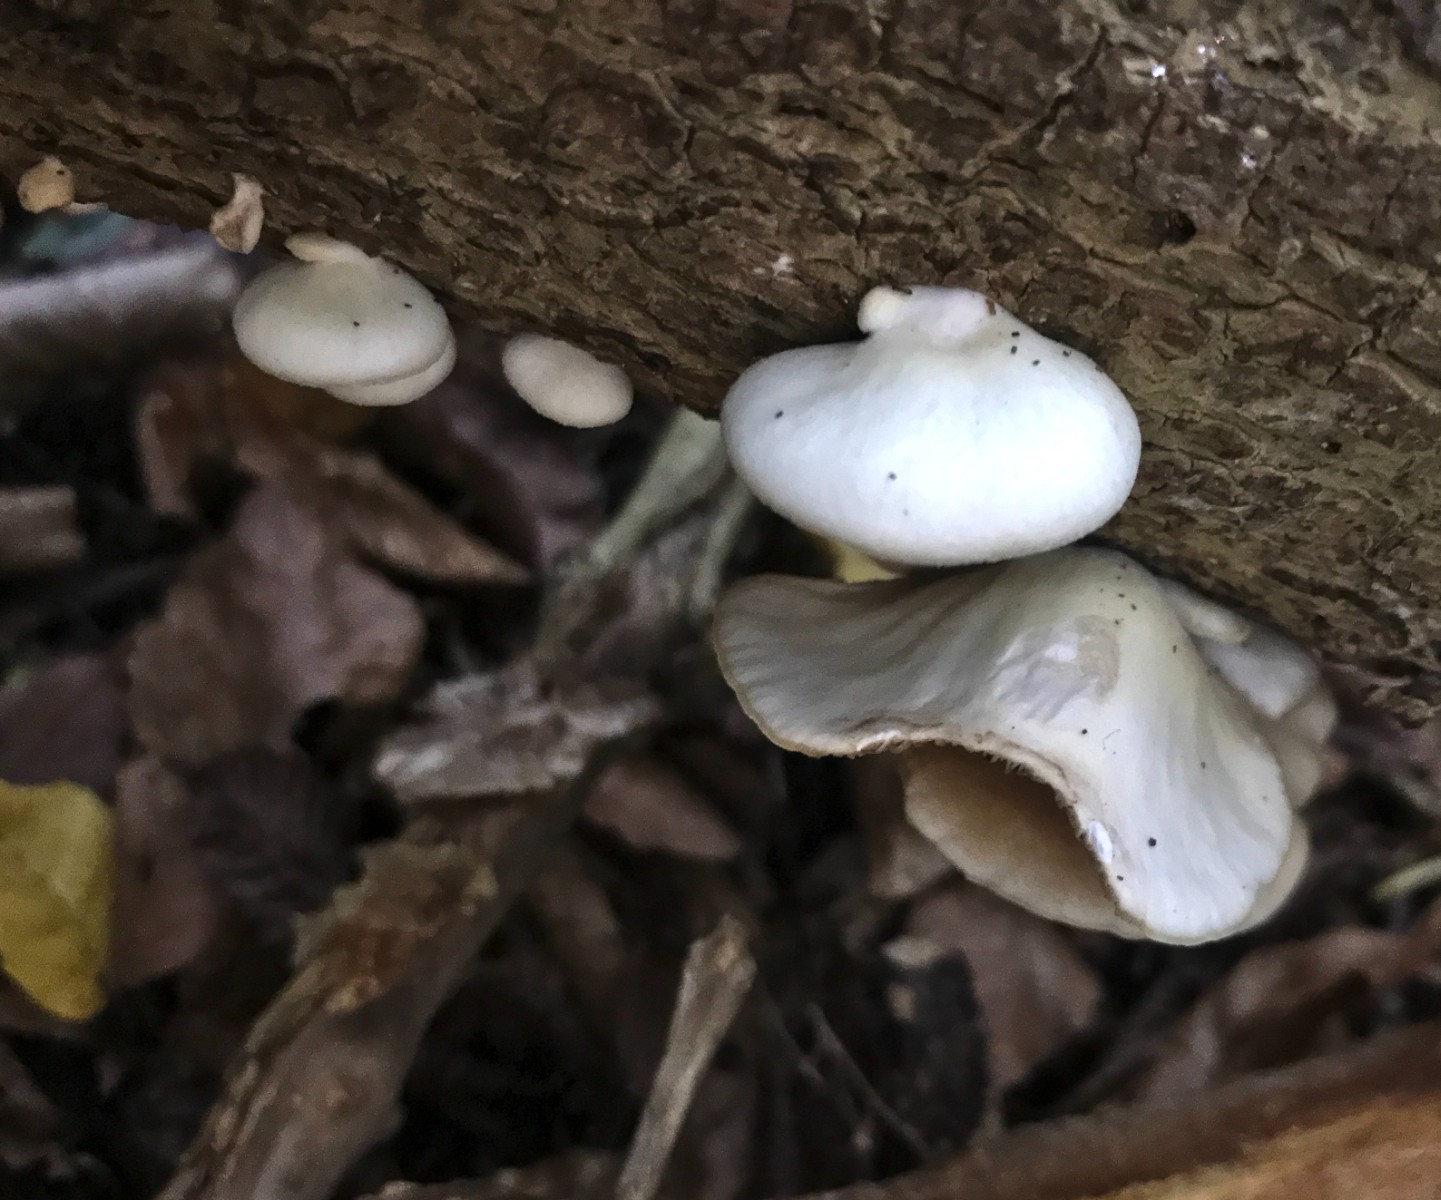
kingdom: Fungi
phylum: Basidiomycota
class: Agaricomycetes
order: Agaricales
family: Crepidotaceae
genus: Crepidotus
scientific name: Crepidotus mollis
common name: blød muslingesvamp
